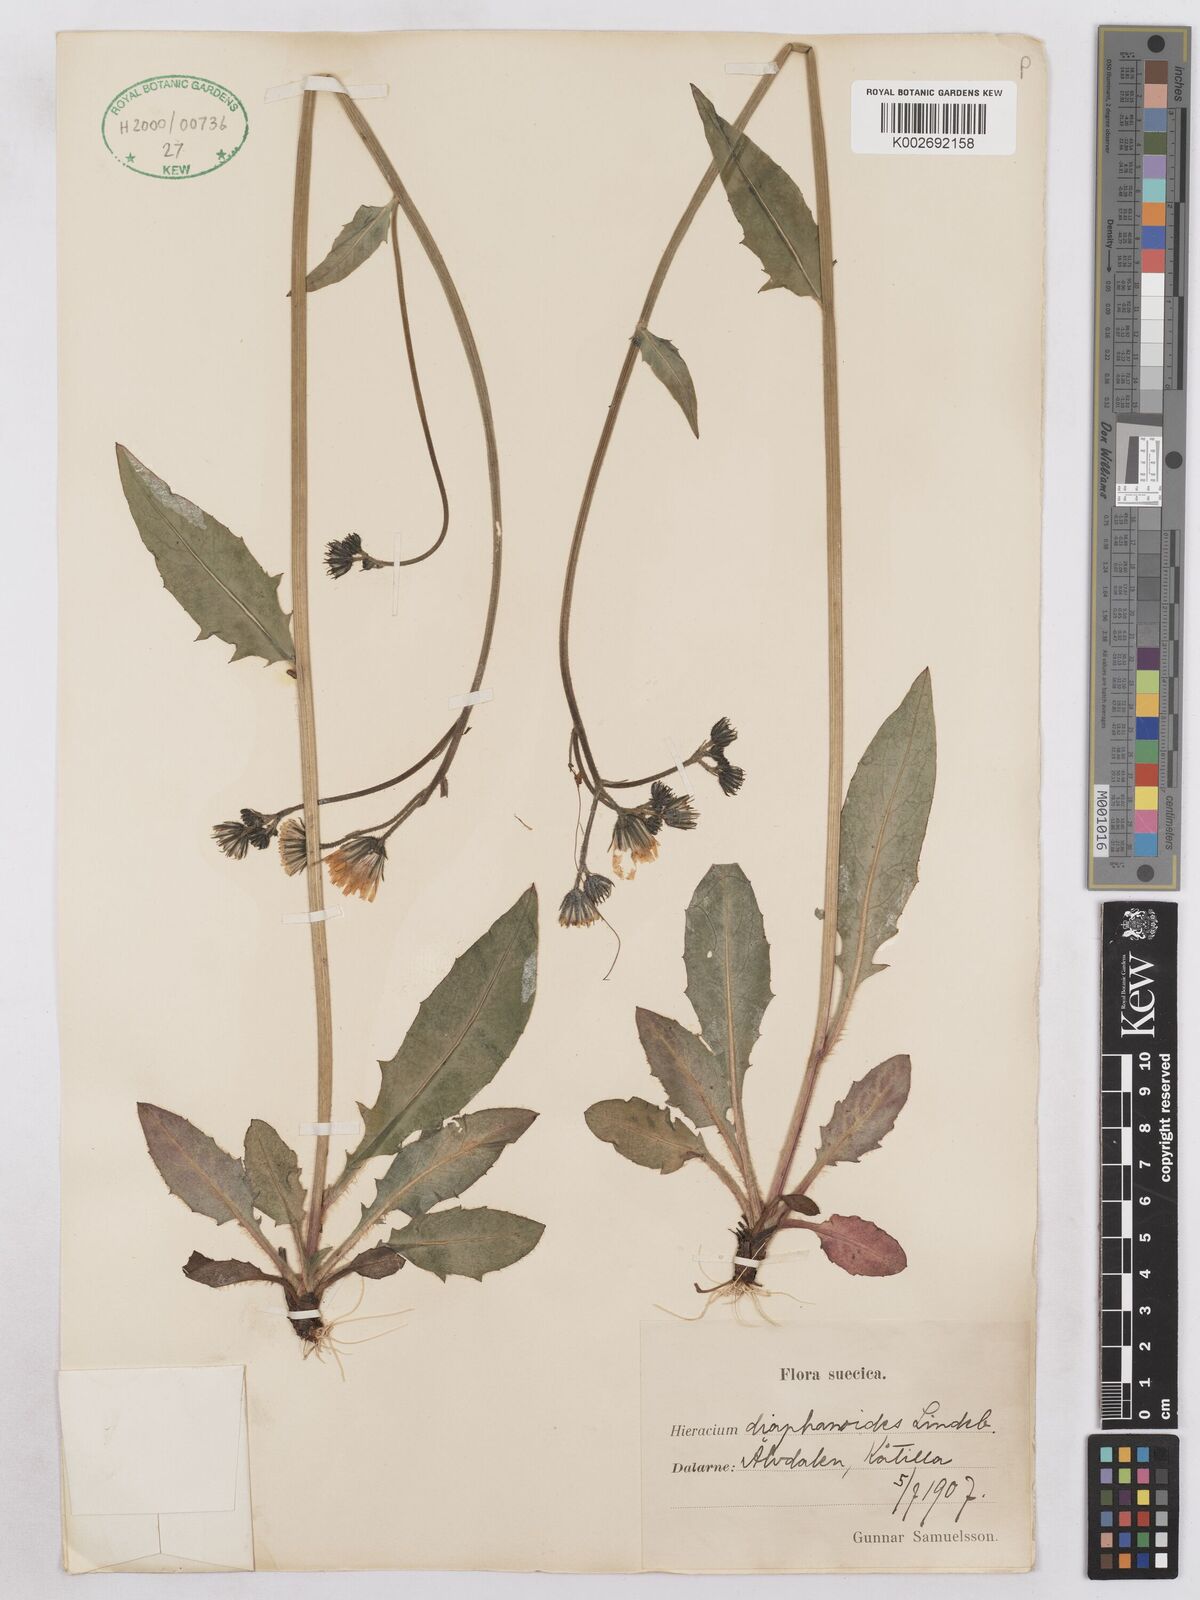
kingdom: Plantae
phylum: Tracheophyta
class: Magnoliopsida
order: Asterales
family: Asteraceae
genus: Hieracium
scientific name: Hieracium diaphanoides
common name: Fine-bracted hawkweed
